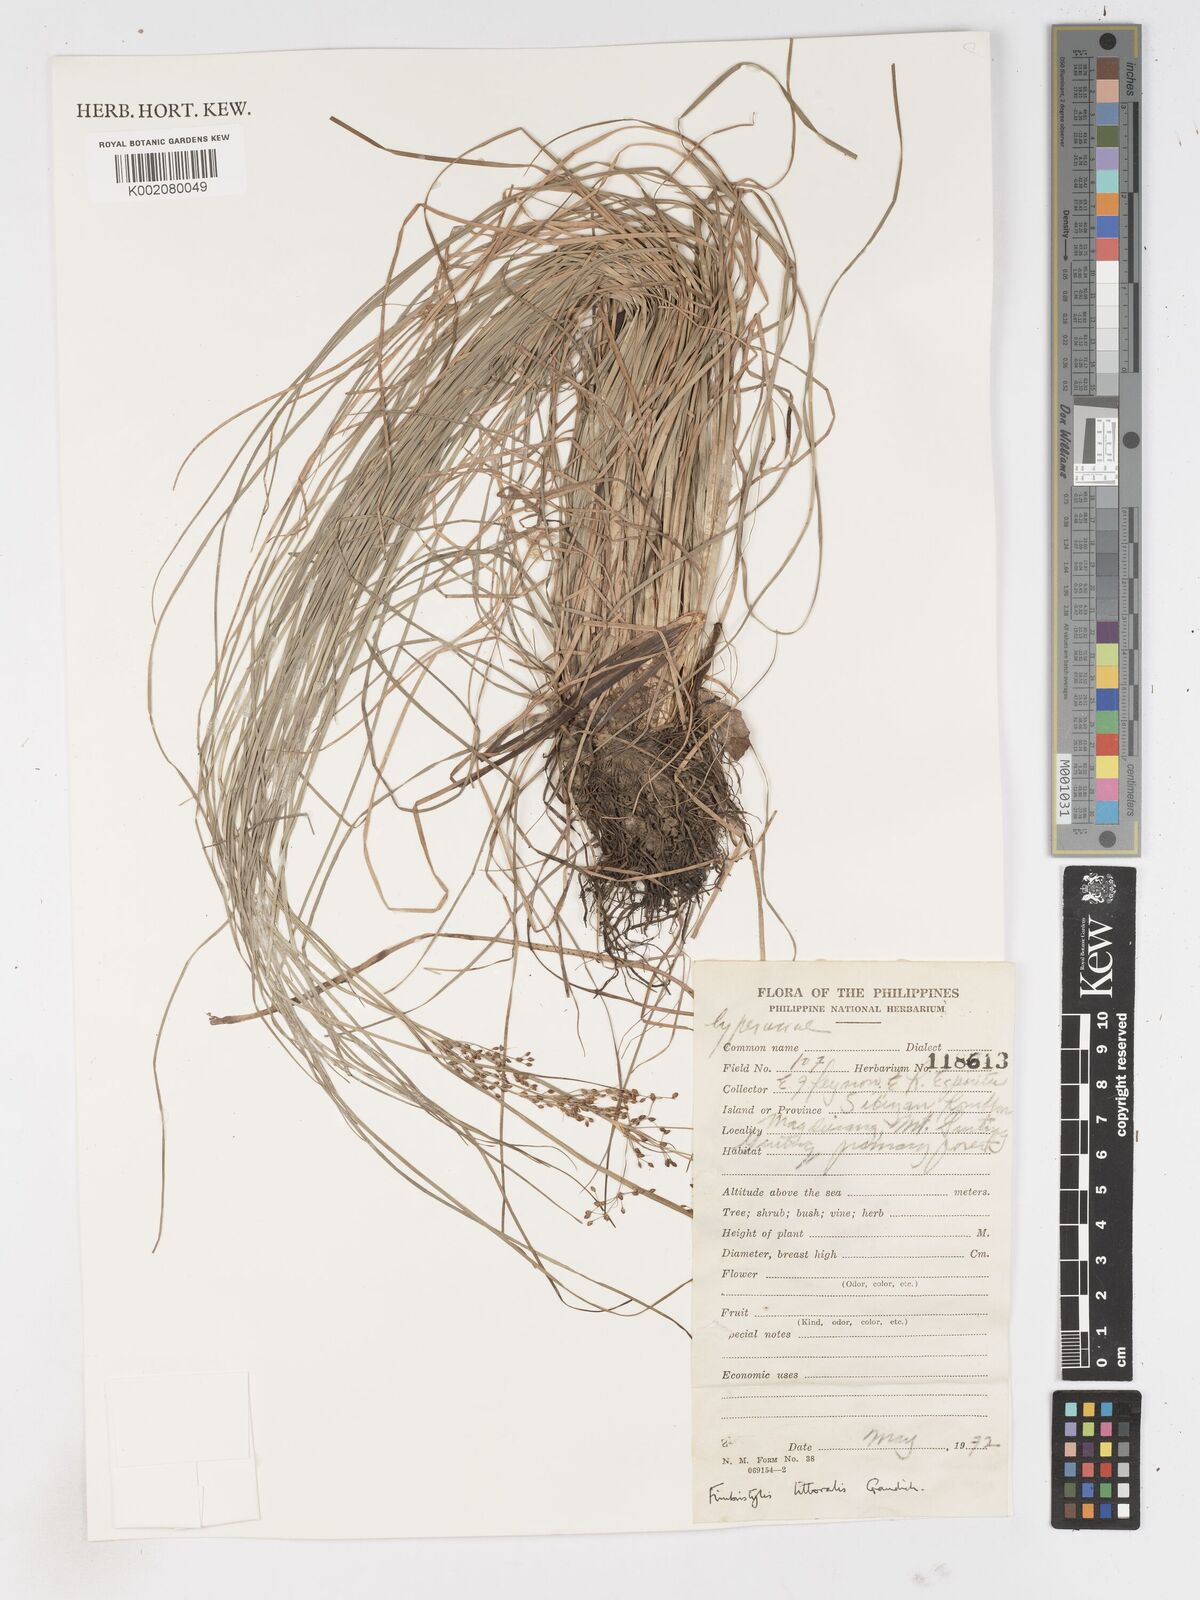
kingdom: Plantae
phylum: Tracheophyta
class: Liliopsida
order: Poales
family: Cyperaceae
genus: Fimbristylis
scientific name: Fimbristylis littoralis
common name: Fimbry
